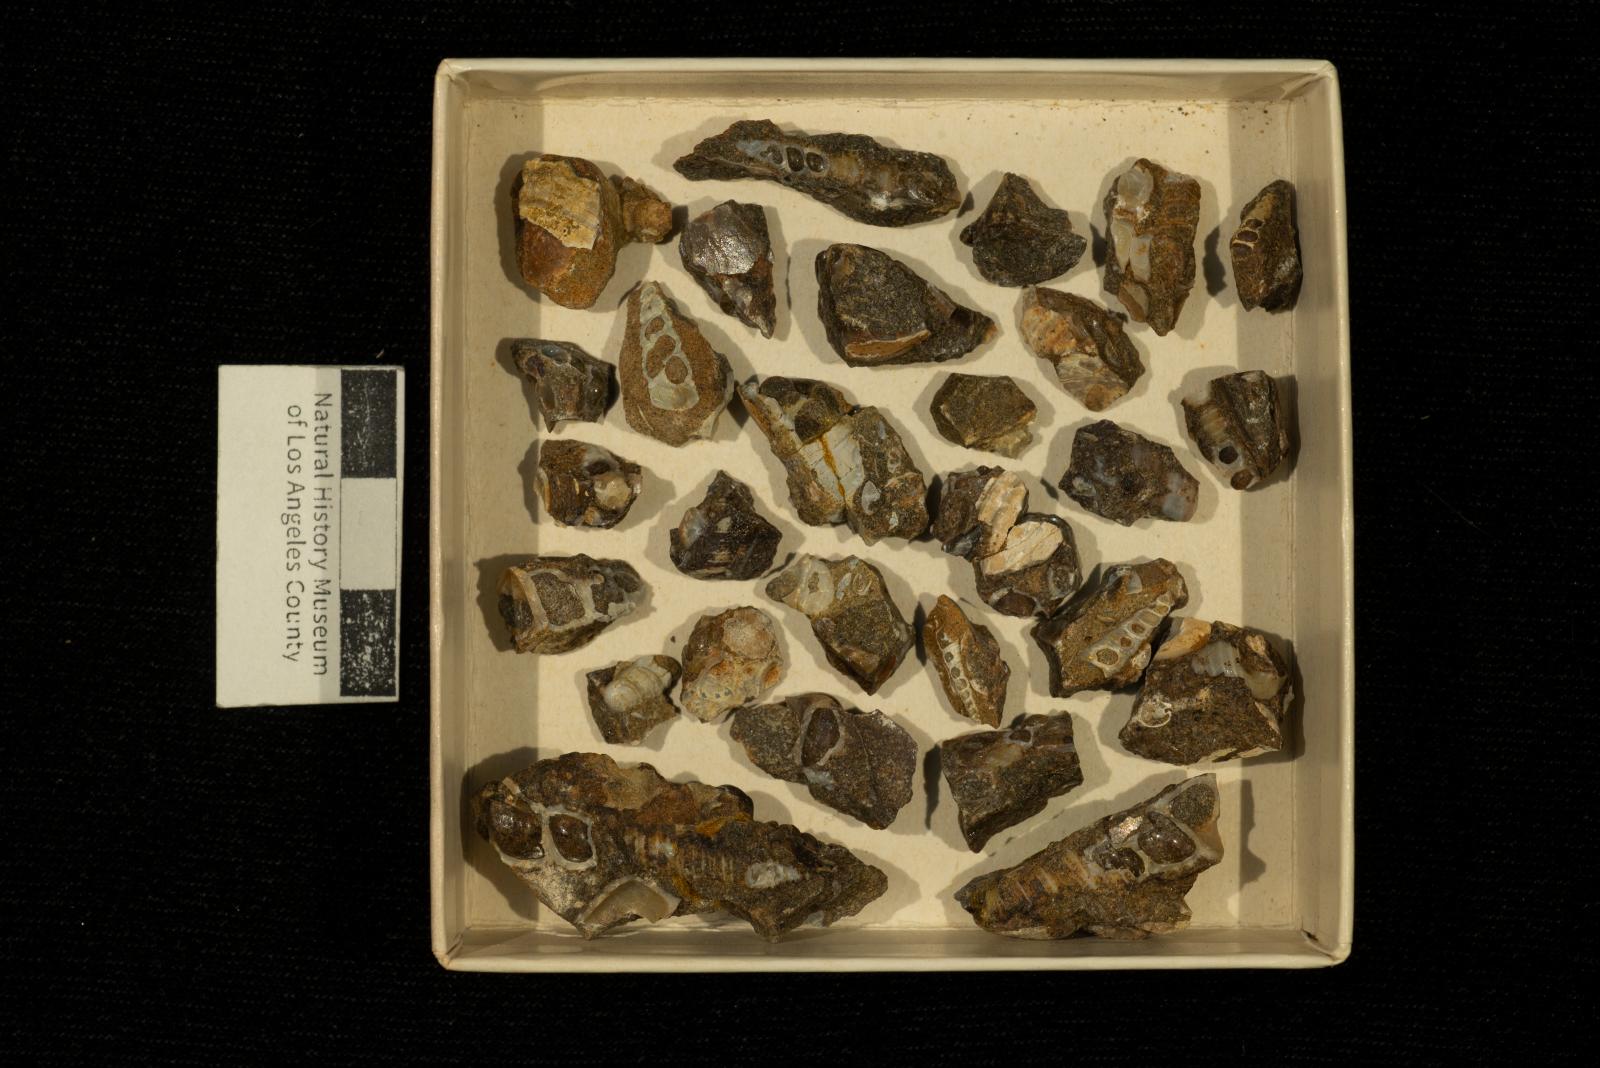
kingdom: Animalia
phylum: Mollusca
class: Gastropoda
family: Turritellidae
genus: Turritella
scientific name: Turritella encina
